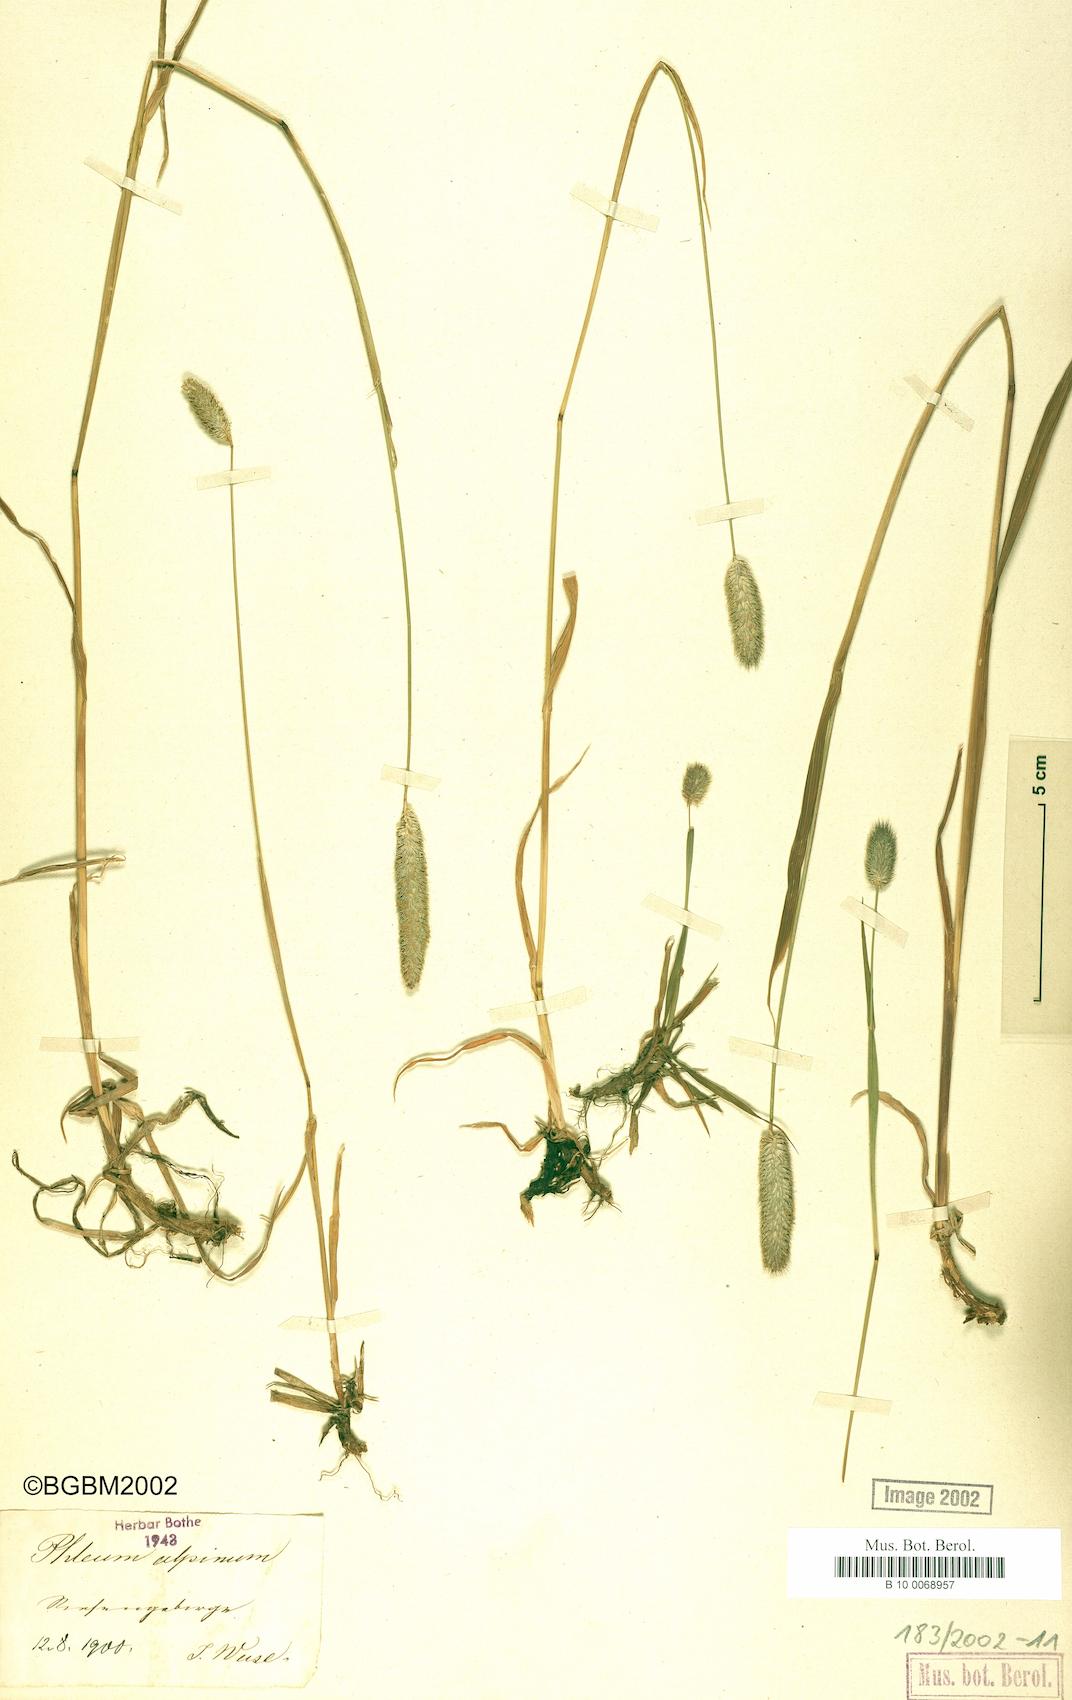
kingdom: Plantae
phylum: Tracheophyta
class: Liliopsida
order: Poales
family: Poaceae
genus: Phleum
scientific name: Phleum alpinum
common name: Alpine cat's-tail
